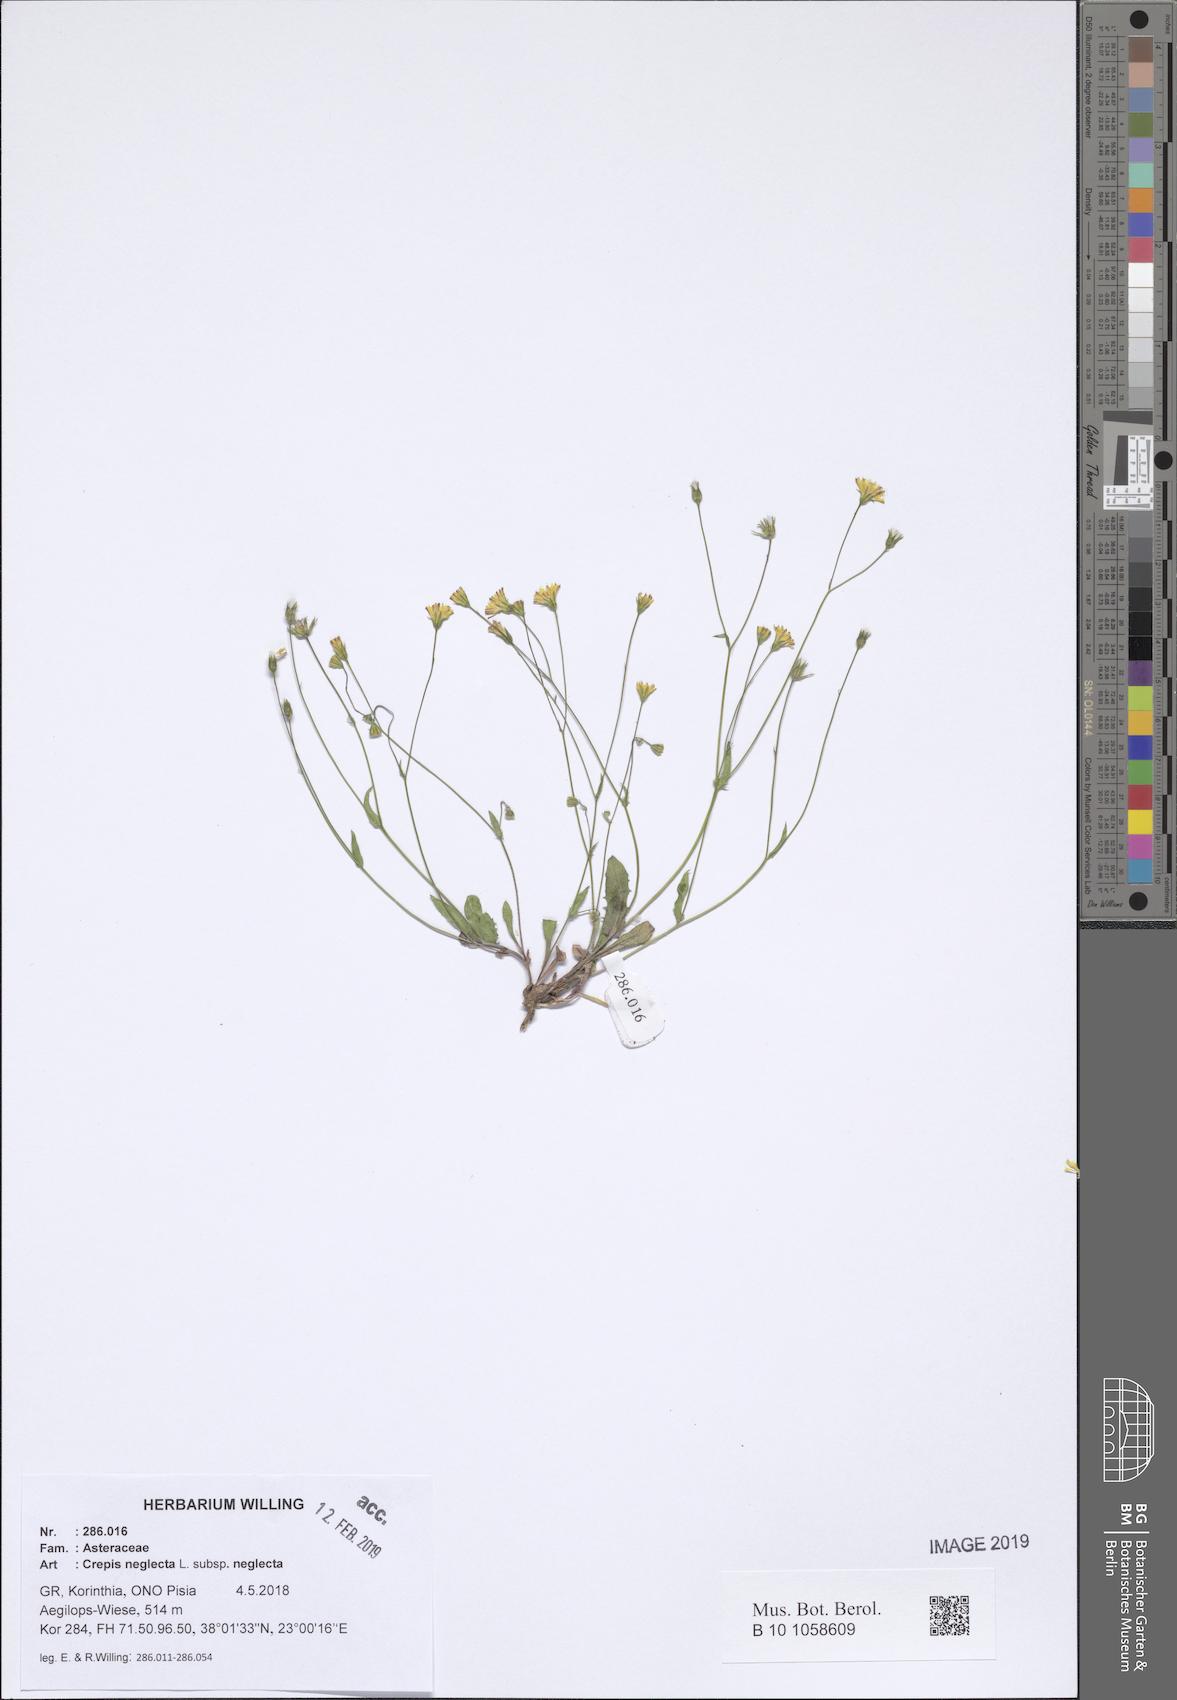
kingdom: Plantae
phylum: Tracheophyta
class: Magnoliopsida
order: Asterales
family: Asteraceae
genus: Crepis
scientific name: Crepis neglecta
